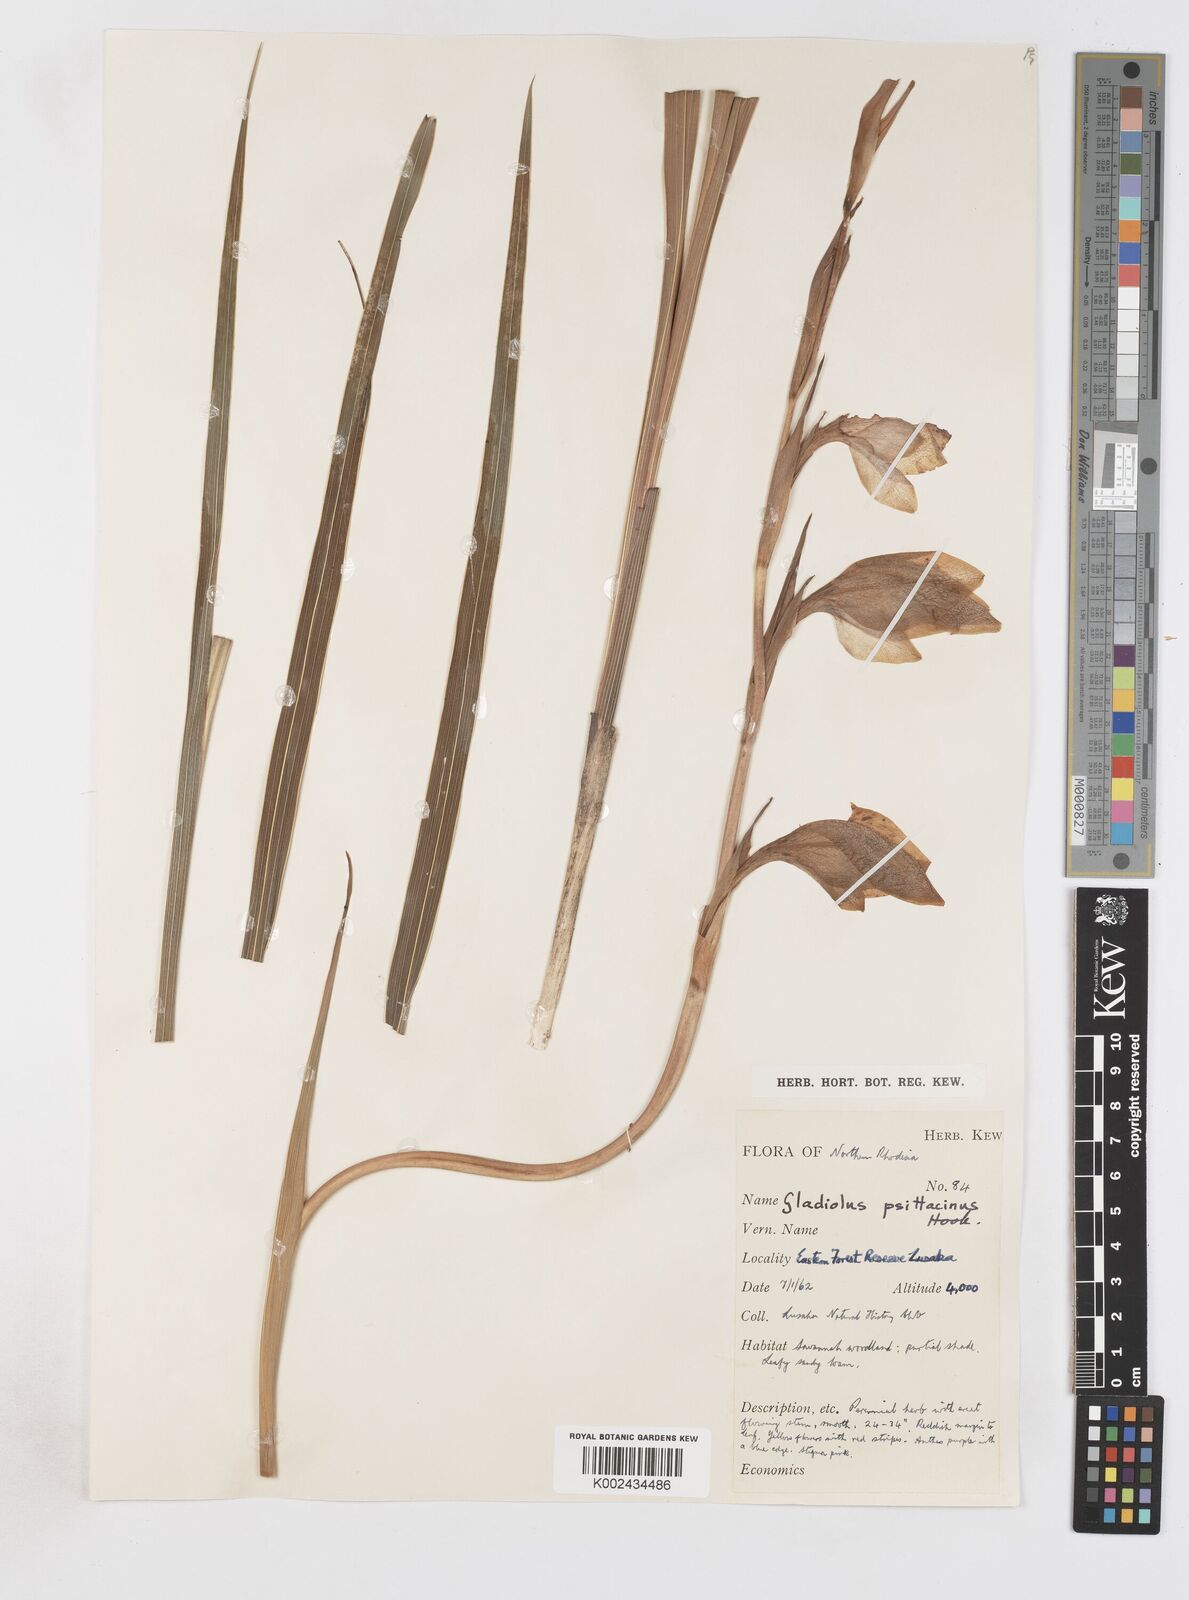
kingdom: Plantae
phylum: Tracheophyta
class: Liliopsida
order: Asparagales
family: Iridaceae
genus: Gladiolus
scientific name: Gladiolus dalenii
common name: Cornflag
